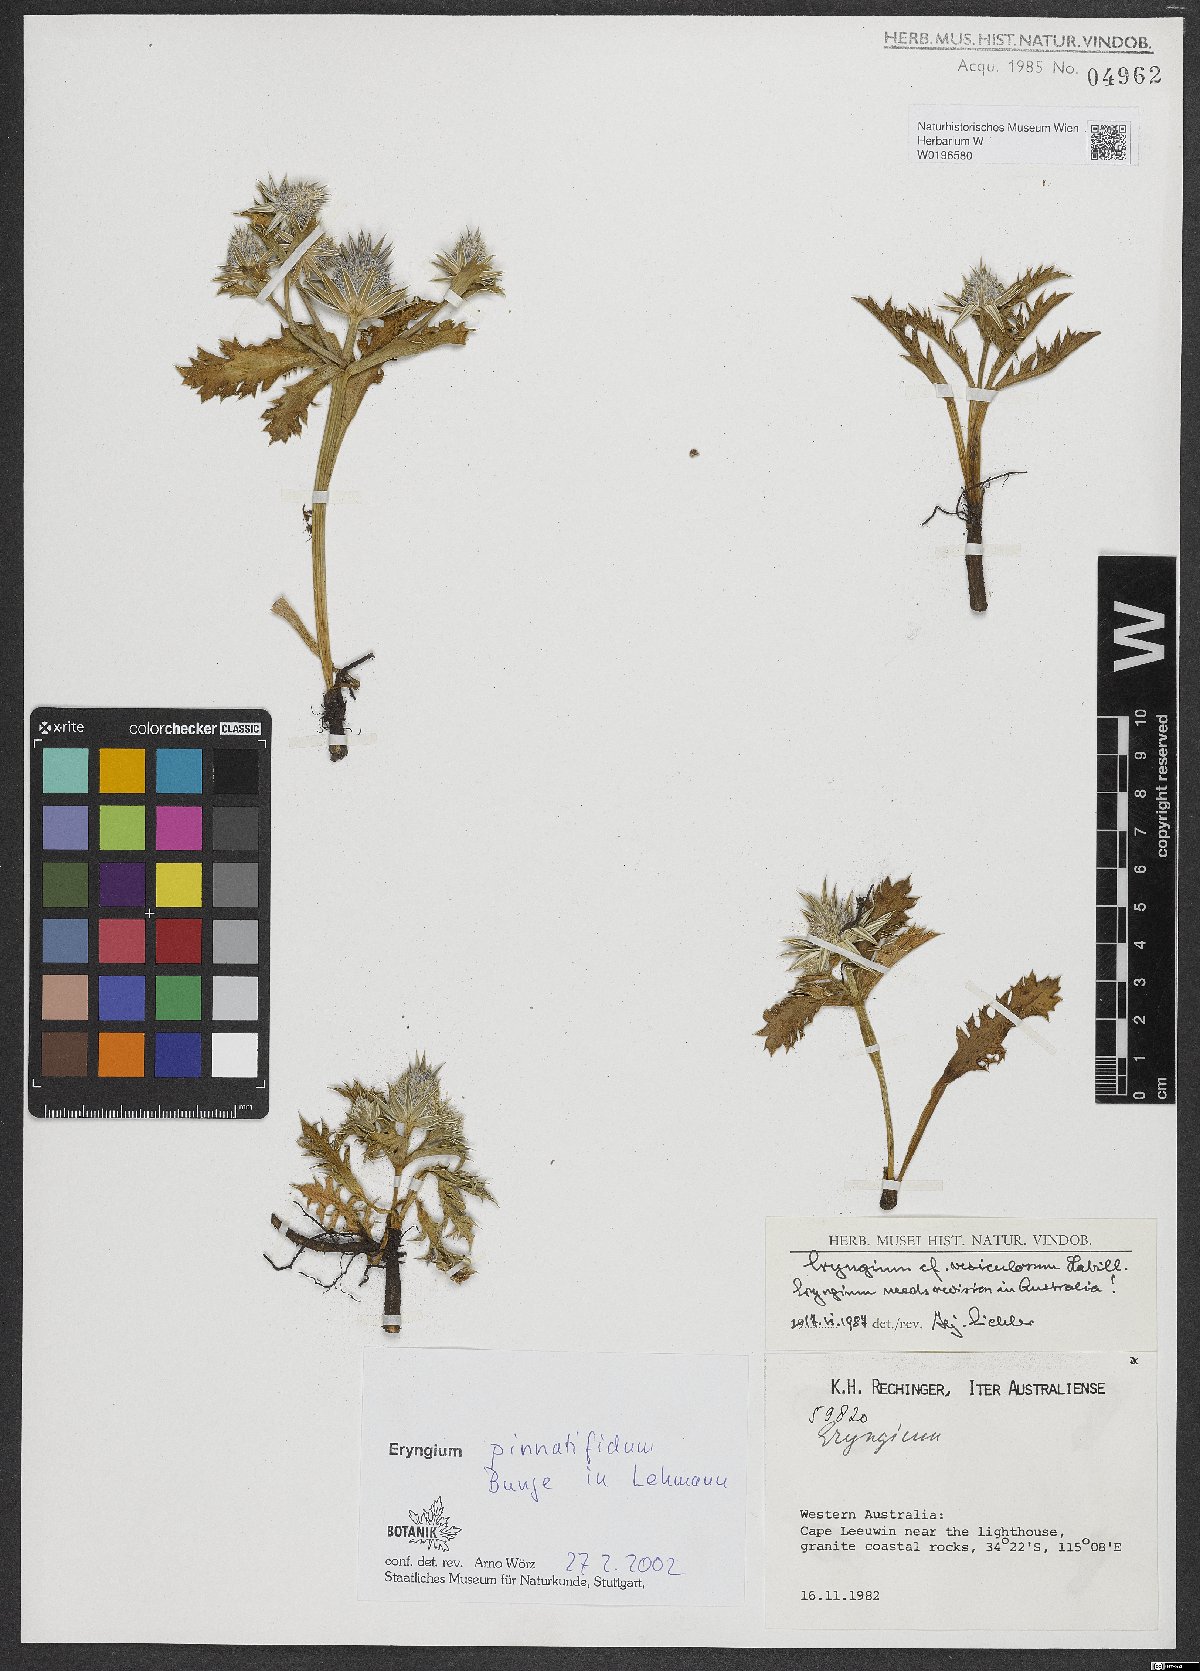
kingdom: Plantae
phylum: Tracheophyta
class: Magnoliopsida
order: Apiales
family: Apiaceae
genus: Eryngium
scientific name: Eryngium pinnatifidum
